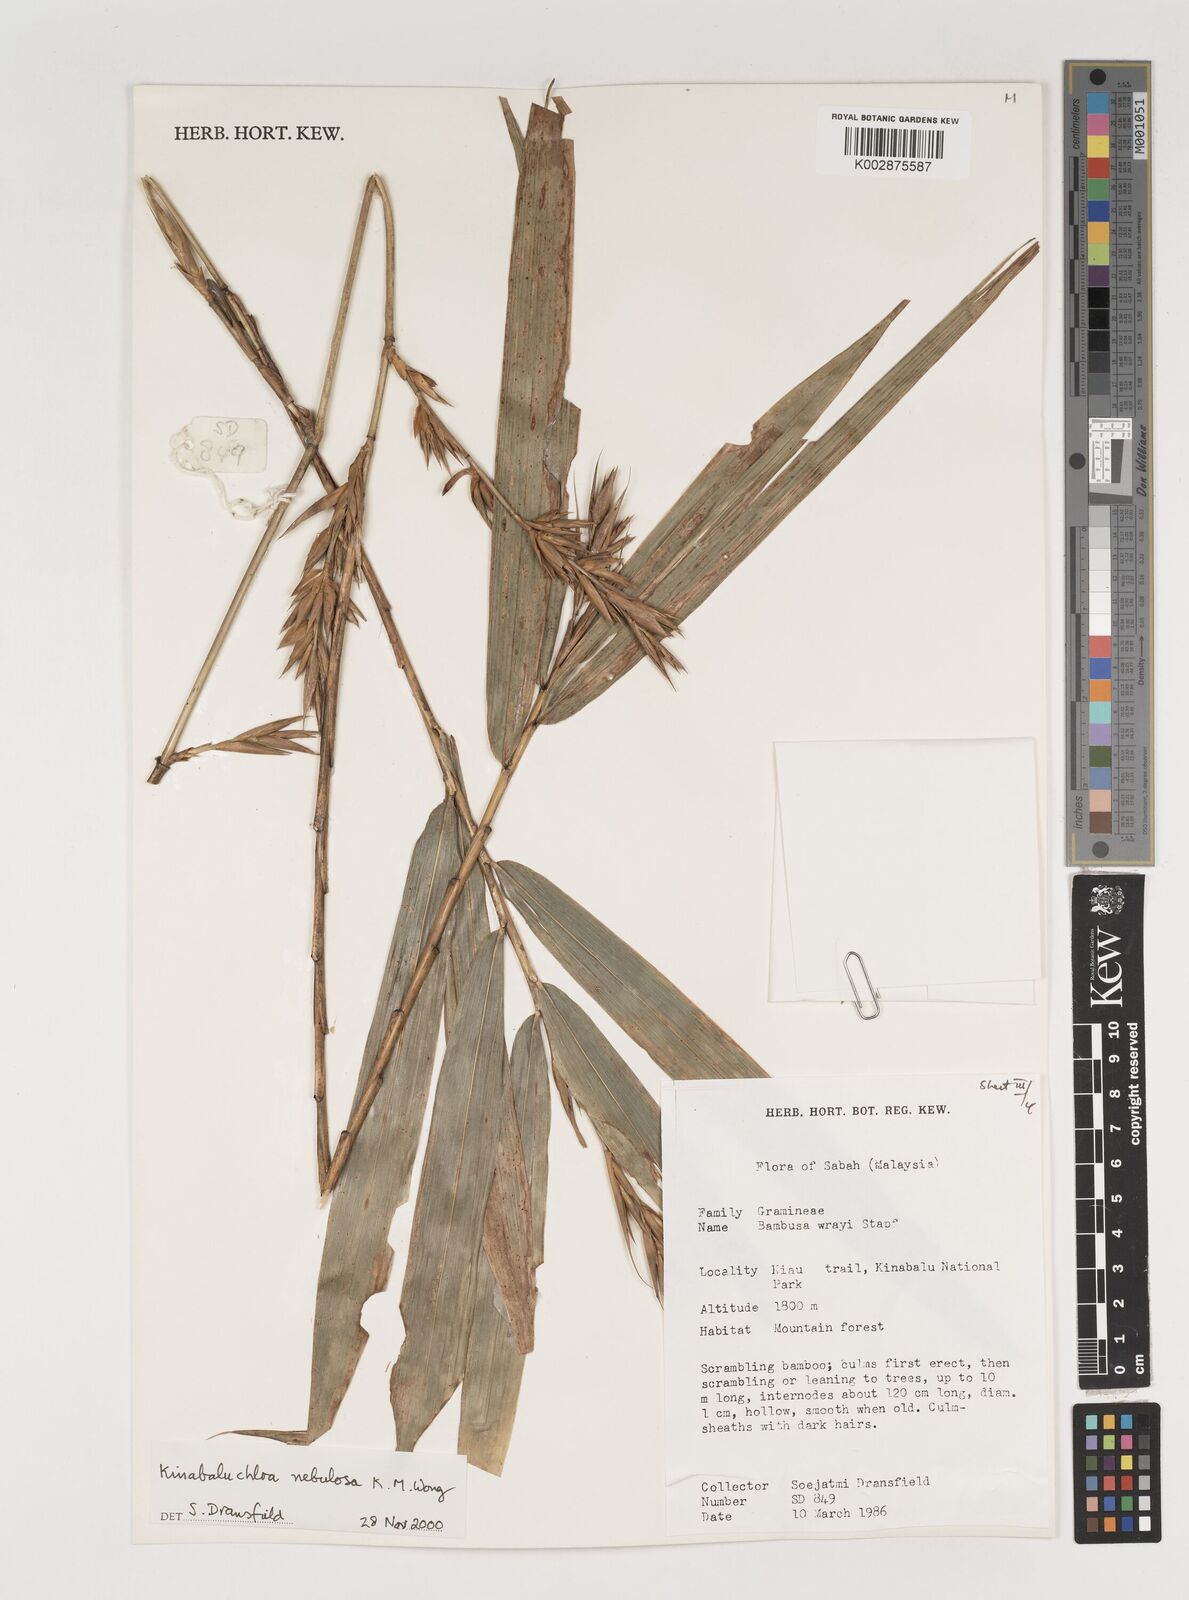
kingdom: Plantae
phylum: Tracheophyta
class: Liliopsida
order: Poales
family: Poaceae
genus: Kinabaluchloa
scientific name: Kinabaluchloa wrayi
